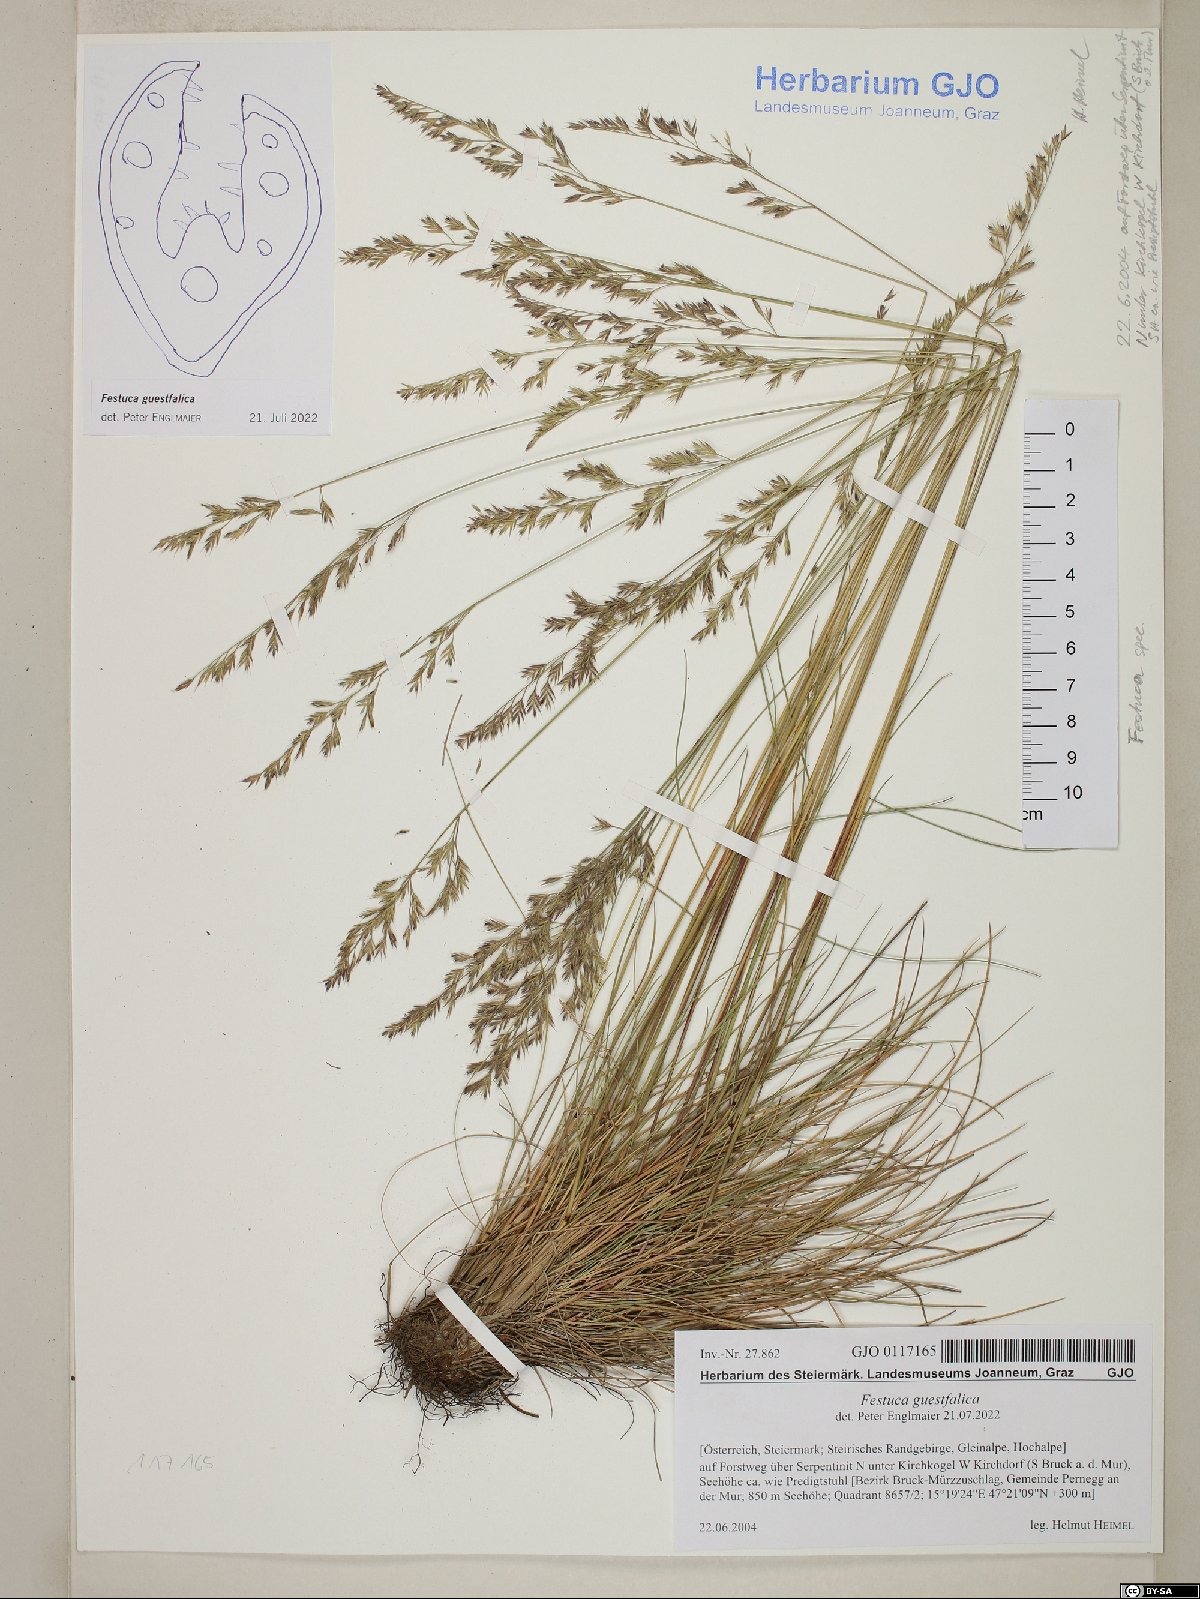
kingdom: Plantae
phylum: Tracheophyta
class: Liliopsida
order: Poales
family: Poaceae
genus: Festuca
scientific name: Festuca guestfalica
